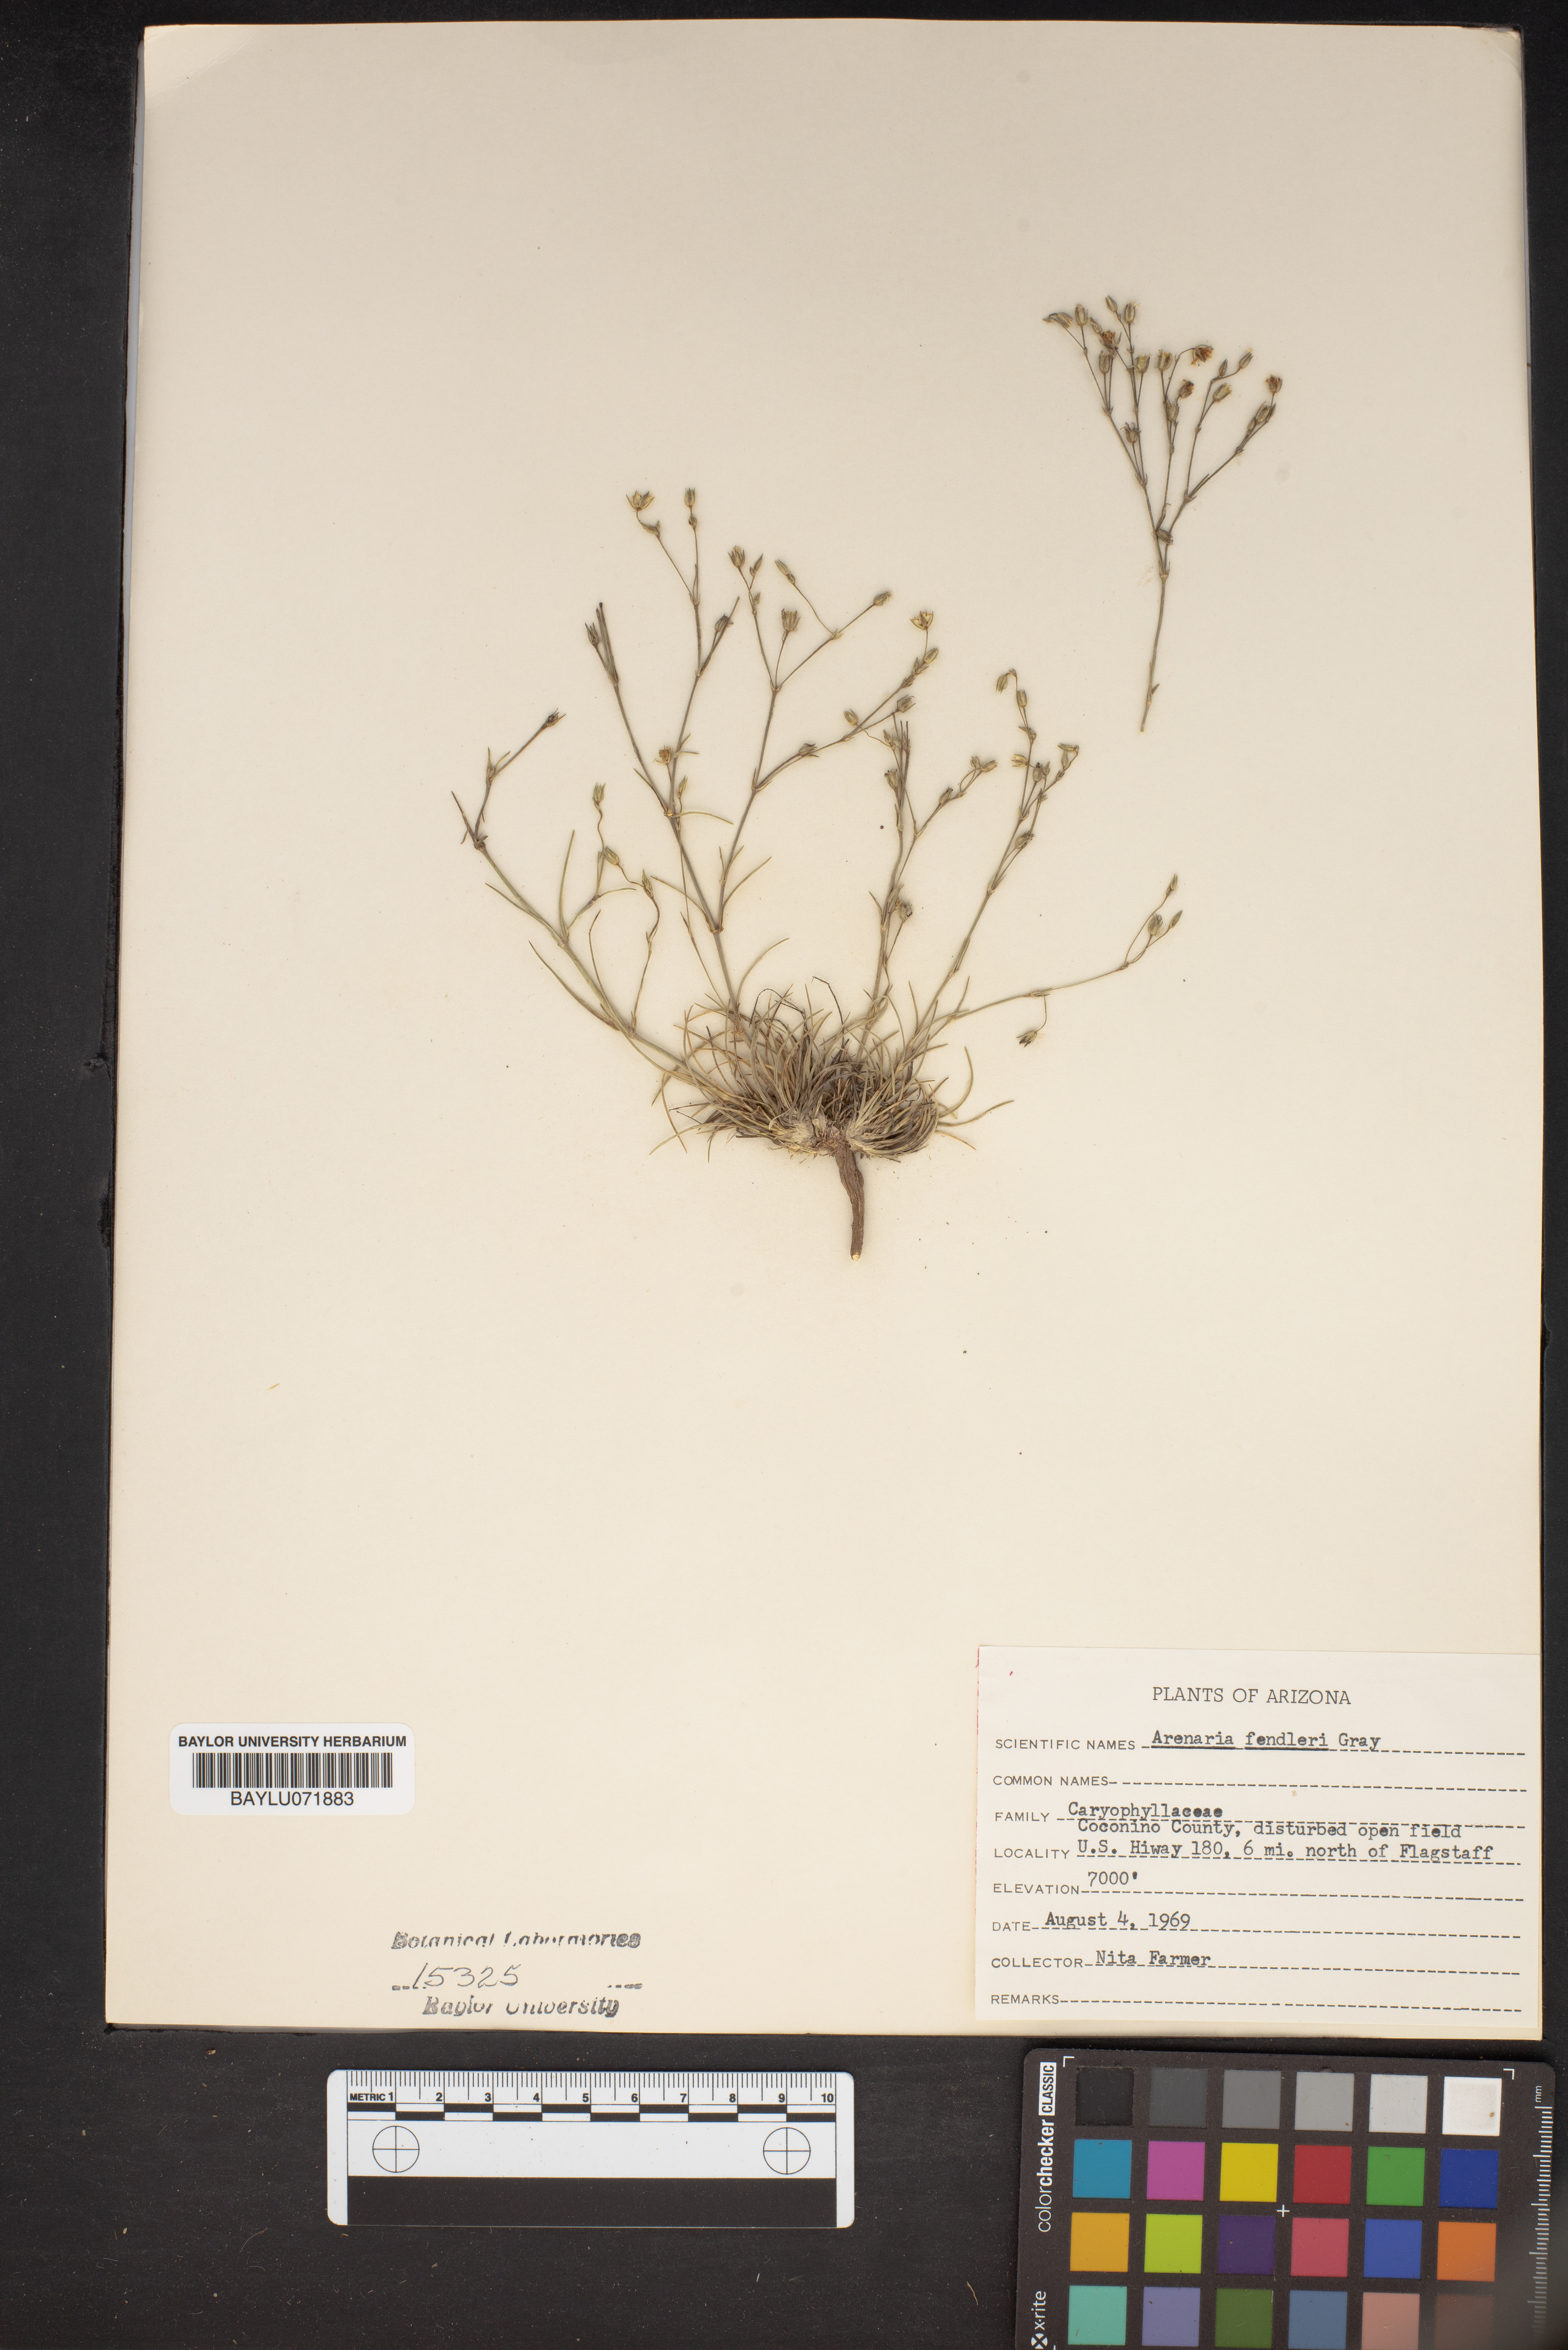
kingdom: Plantae
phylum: Tracheophyta
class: Magnoliopsida
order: Caryophyllales
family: Caryophyllaceae
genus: Eremogone
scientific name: Eremogone fendleri
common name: Fendler's sandwort
